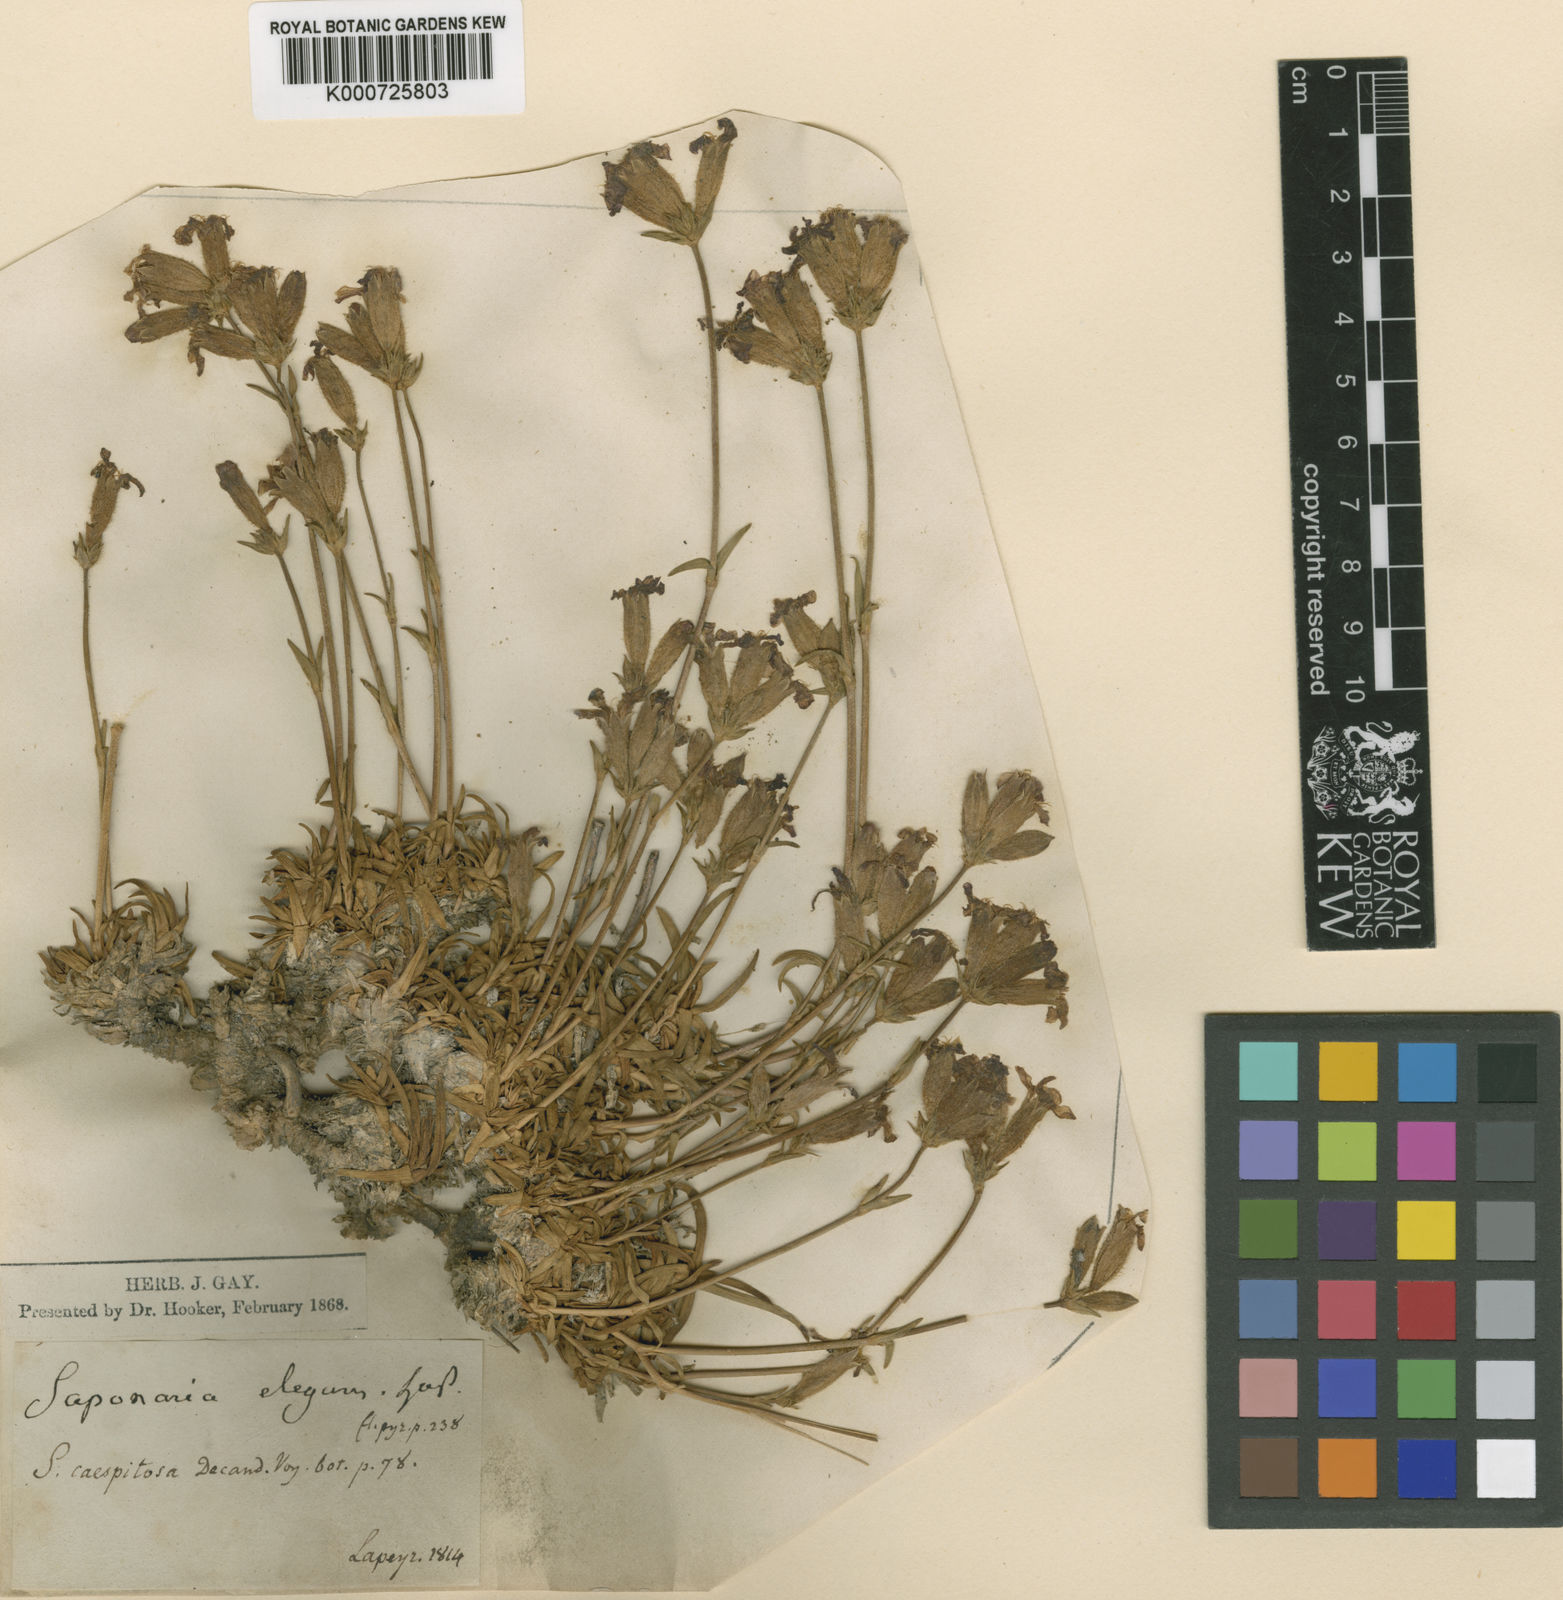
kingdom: Plantae
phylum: Tracheophyta
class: Magnoliopsida
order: Caryophyllales
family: Caryophyllaceae
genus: Saponaria
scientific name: Saponaria caespitosa
